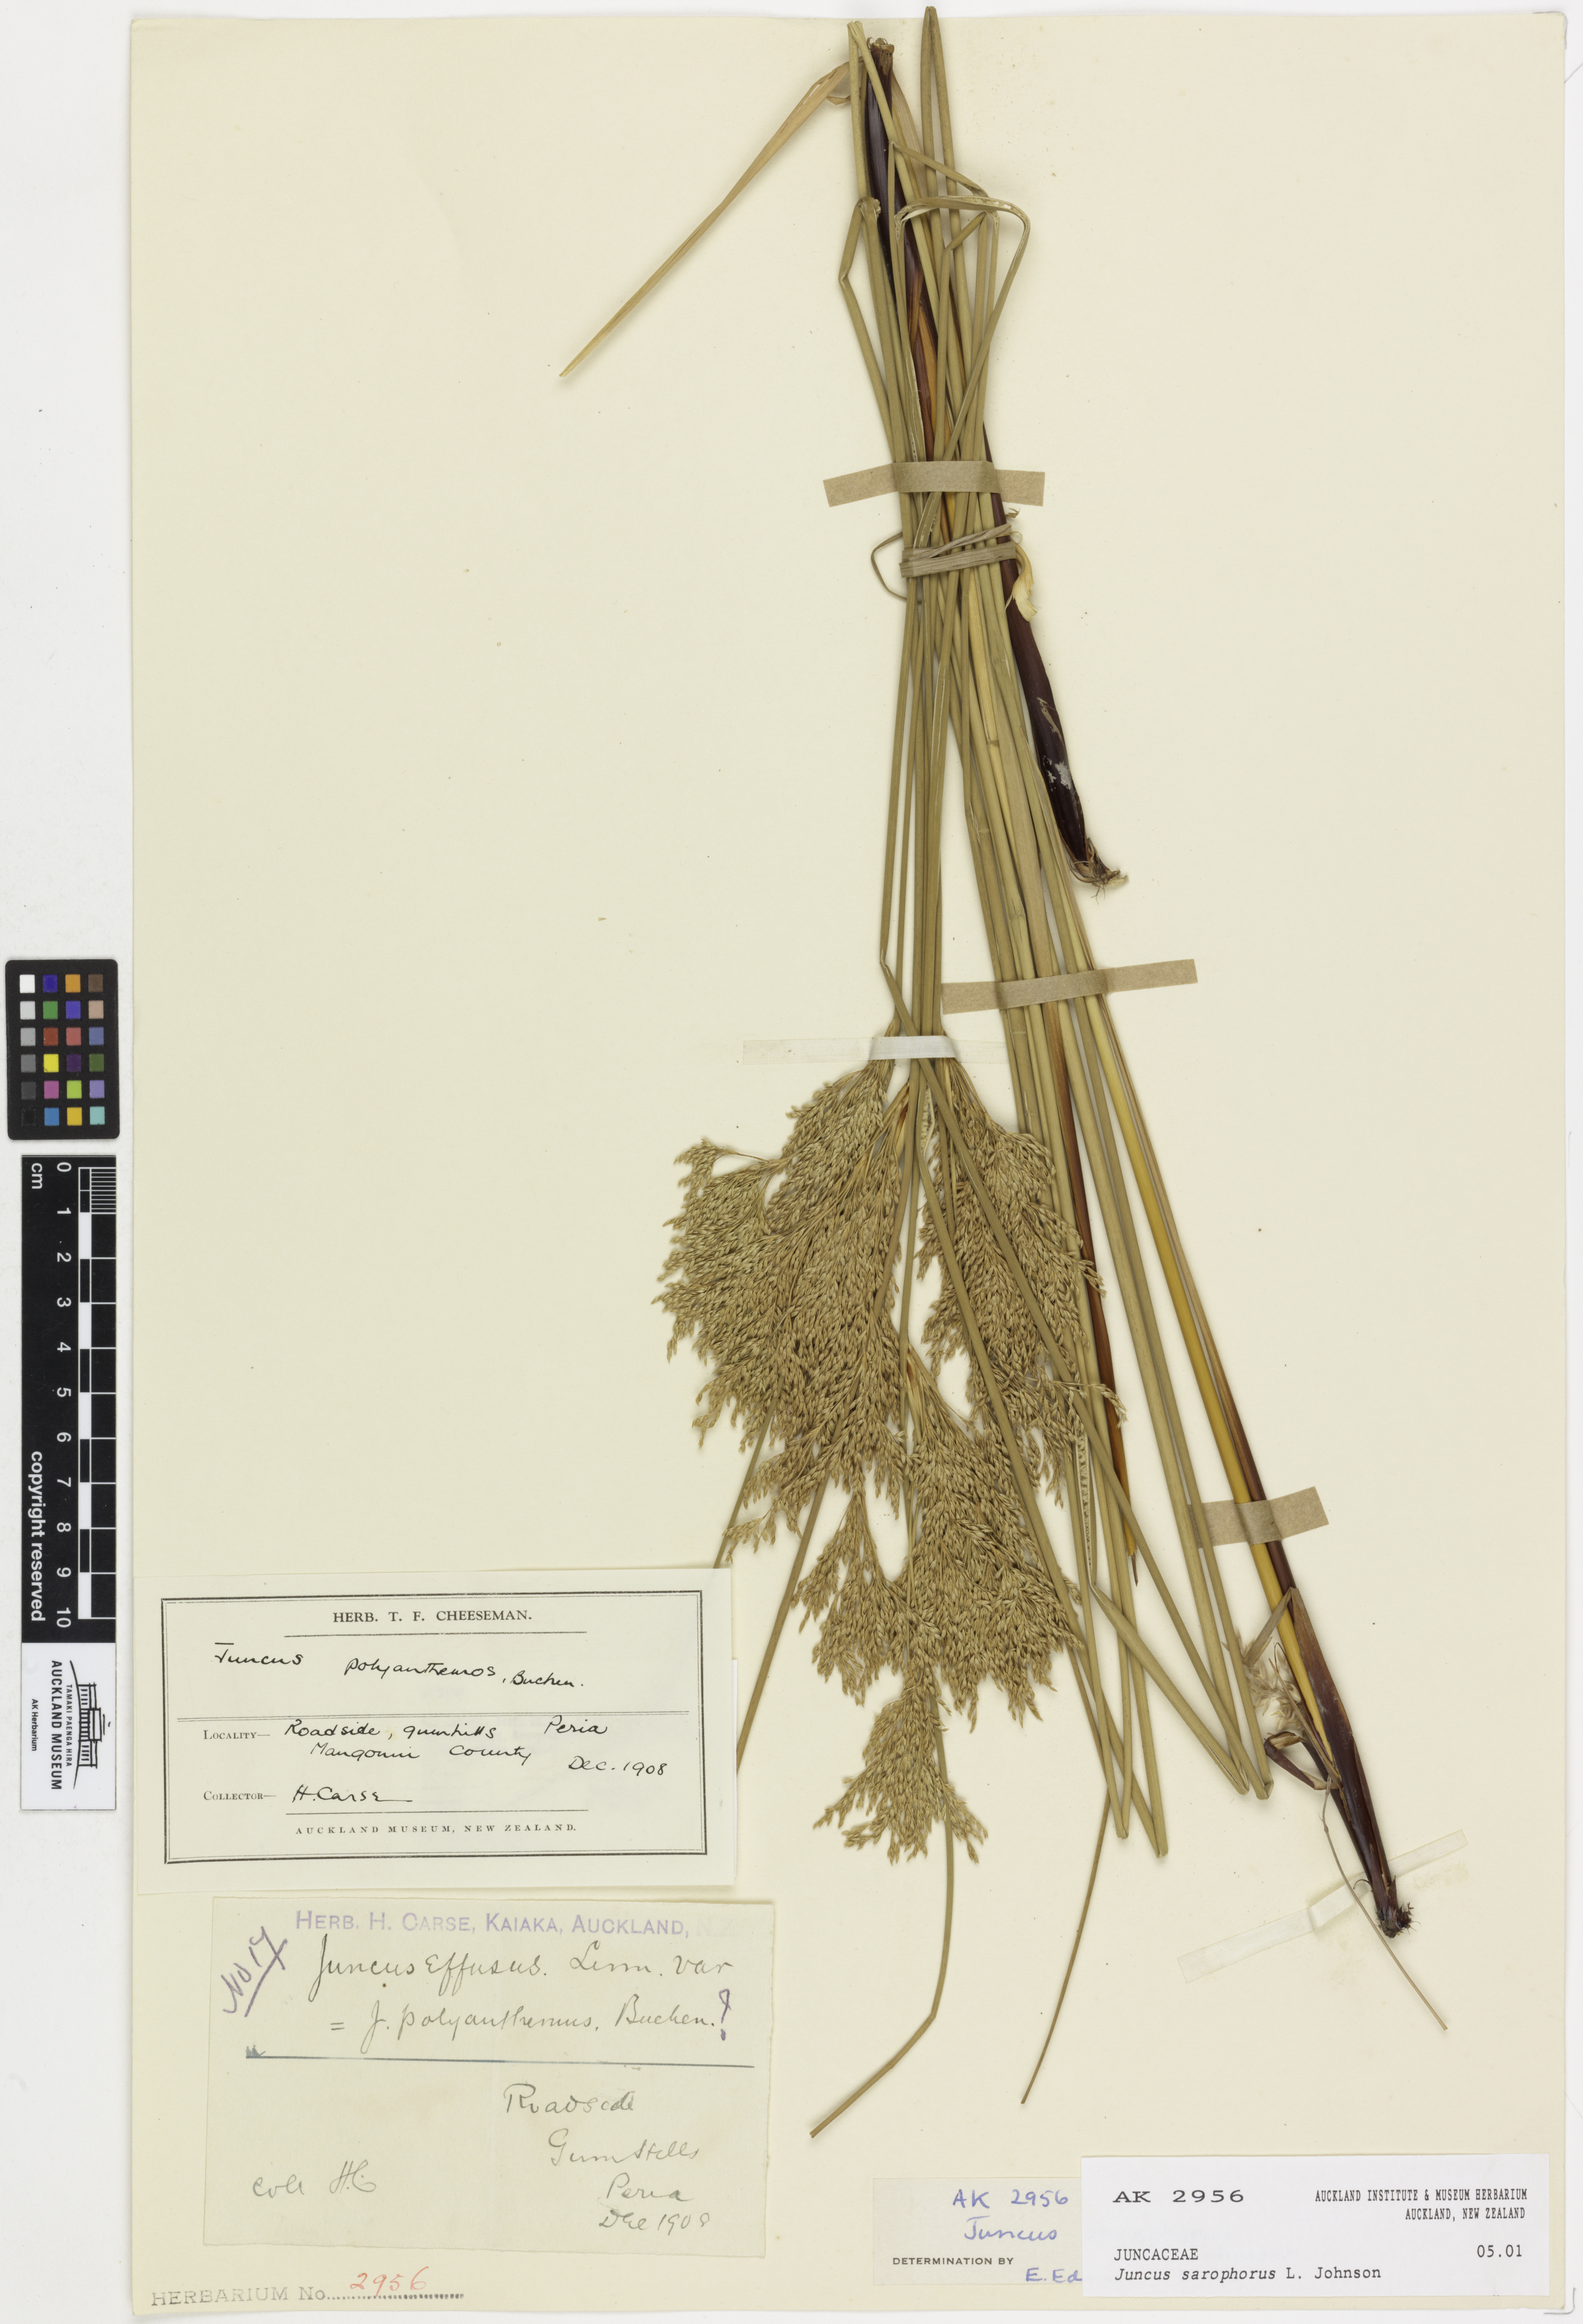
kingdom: Plantae
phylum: Tracheophyta
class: Liliopsida
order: Poales
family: Juncaceae
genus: Juncus
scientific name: Juncus sarophorus
